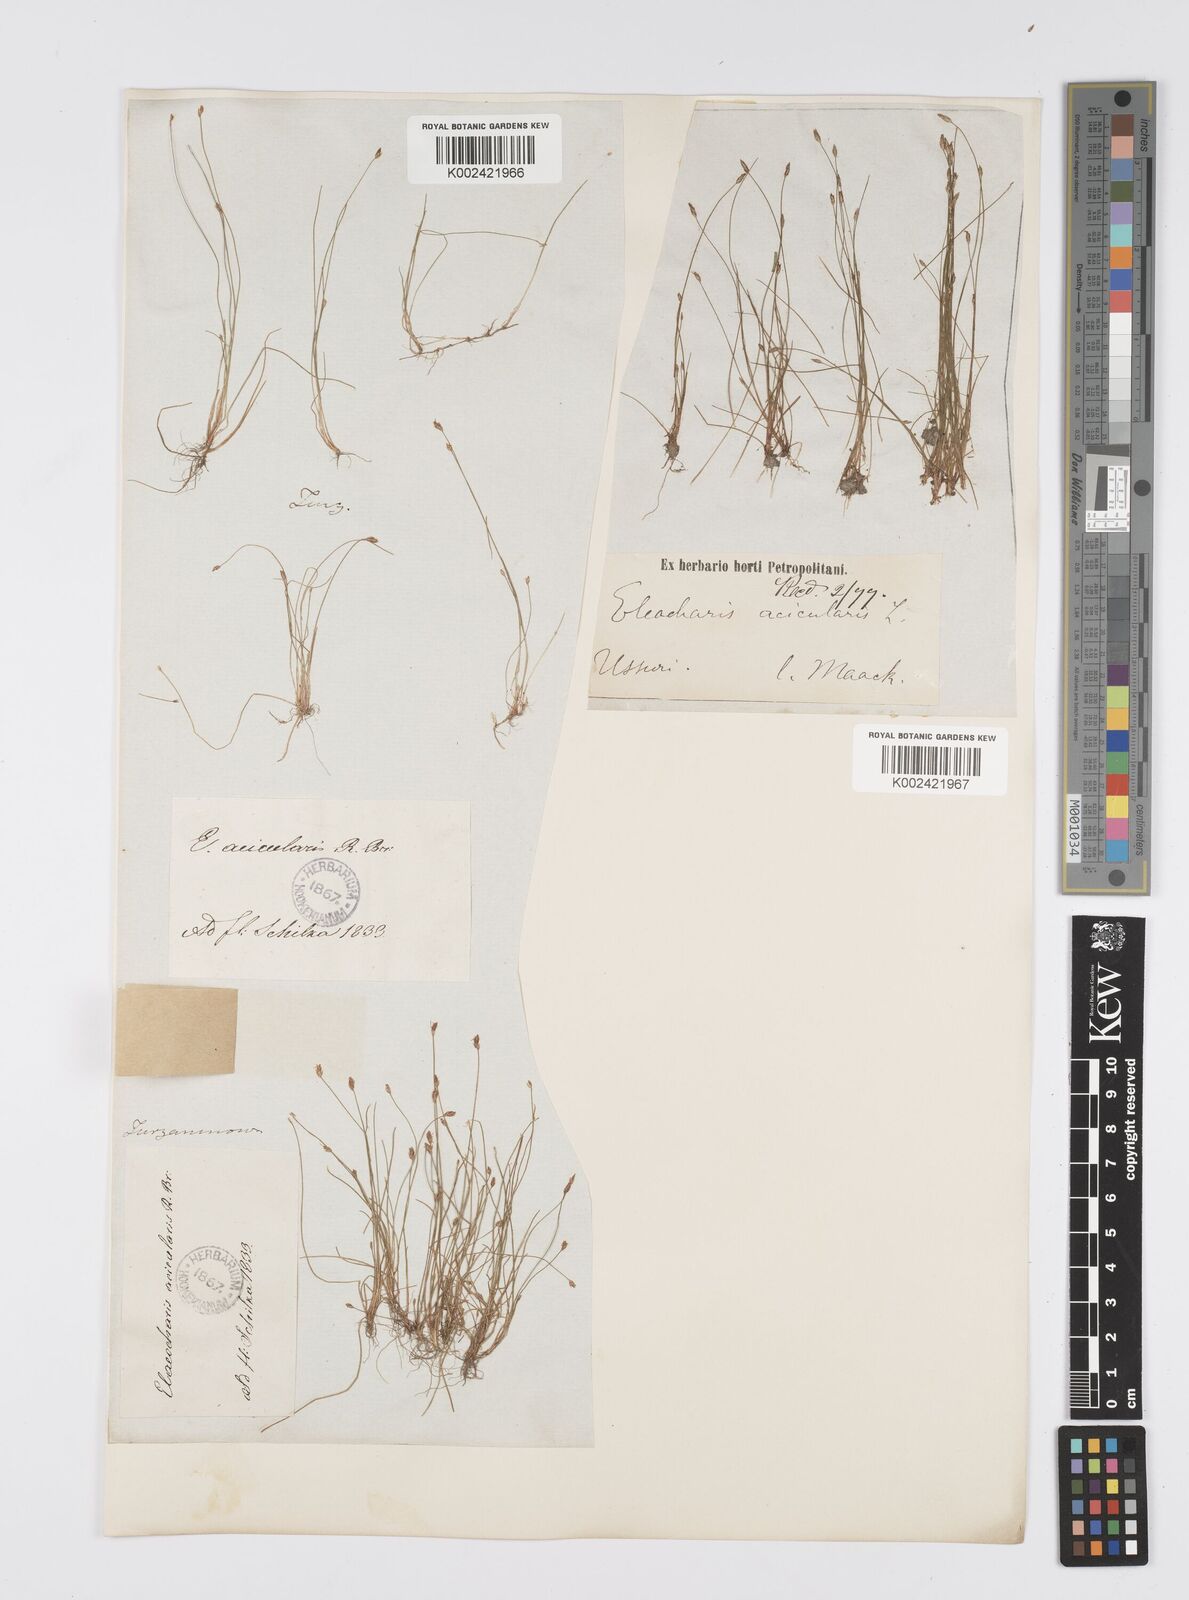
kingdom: Plantae
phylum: Tracheophyta
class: Liliopsida
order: Poales
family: Cyperaceae
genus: Eleocharis
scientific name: Eleocharis acicularis
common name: Needle spike-rush
